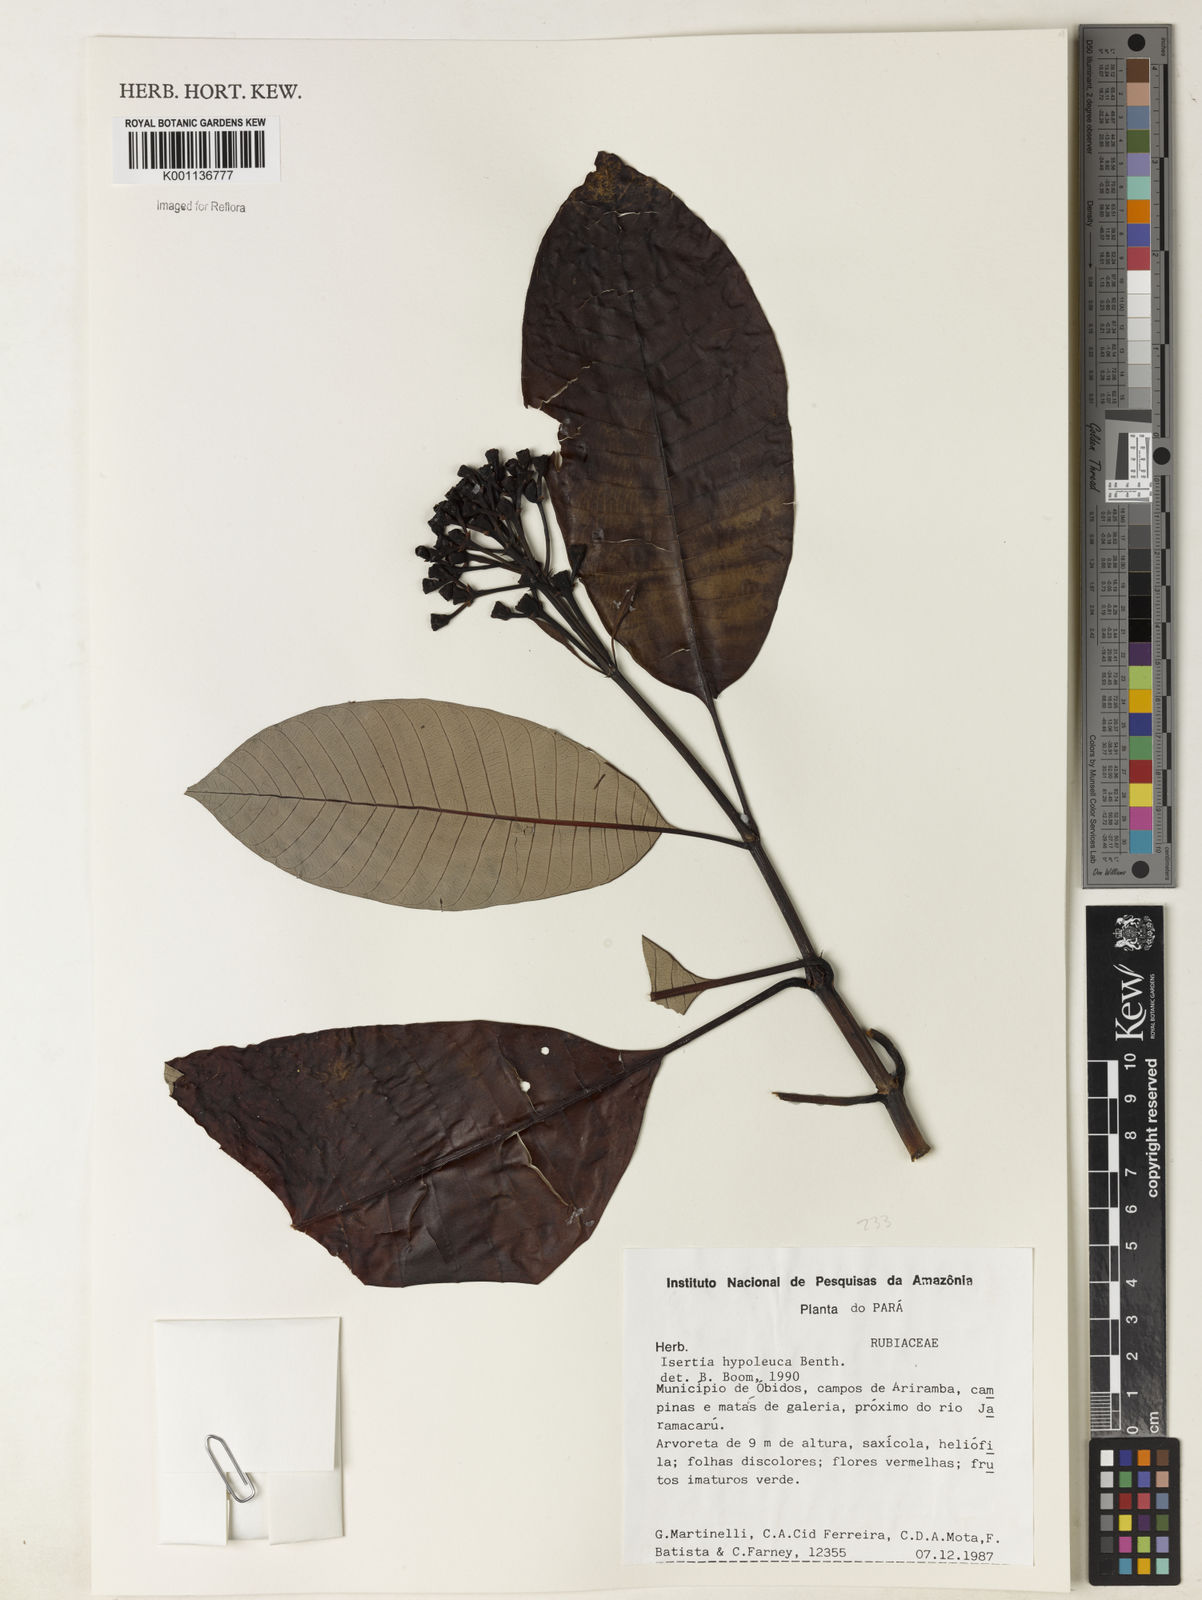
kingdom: Plantae
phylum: Tracheophyta
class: Magnoliopsida
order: Gentianales
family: Rubiaceae
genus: Isertia
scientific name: Isertia hypoleuca
